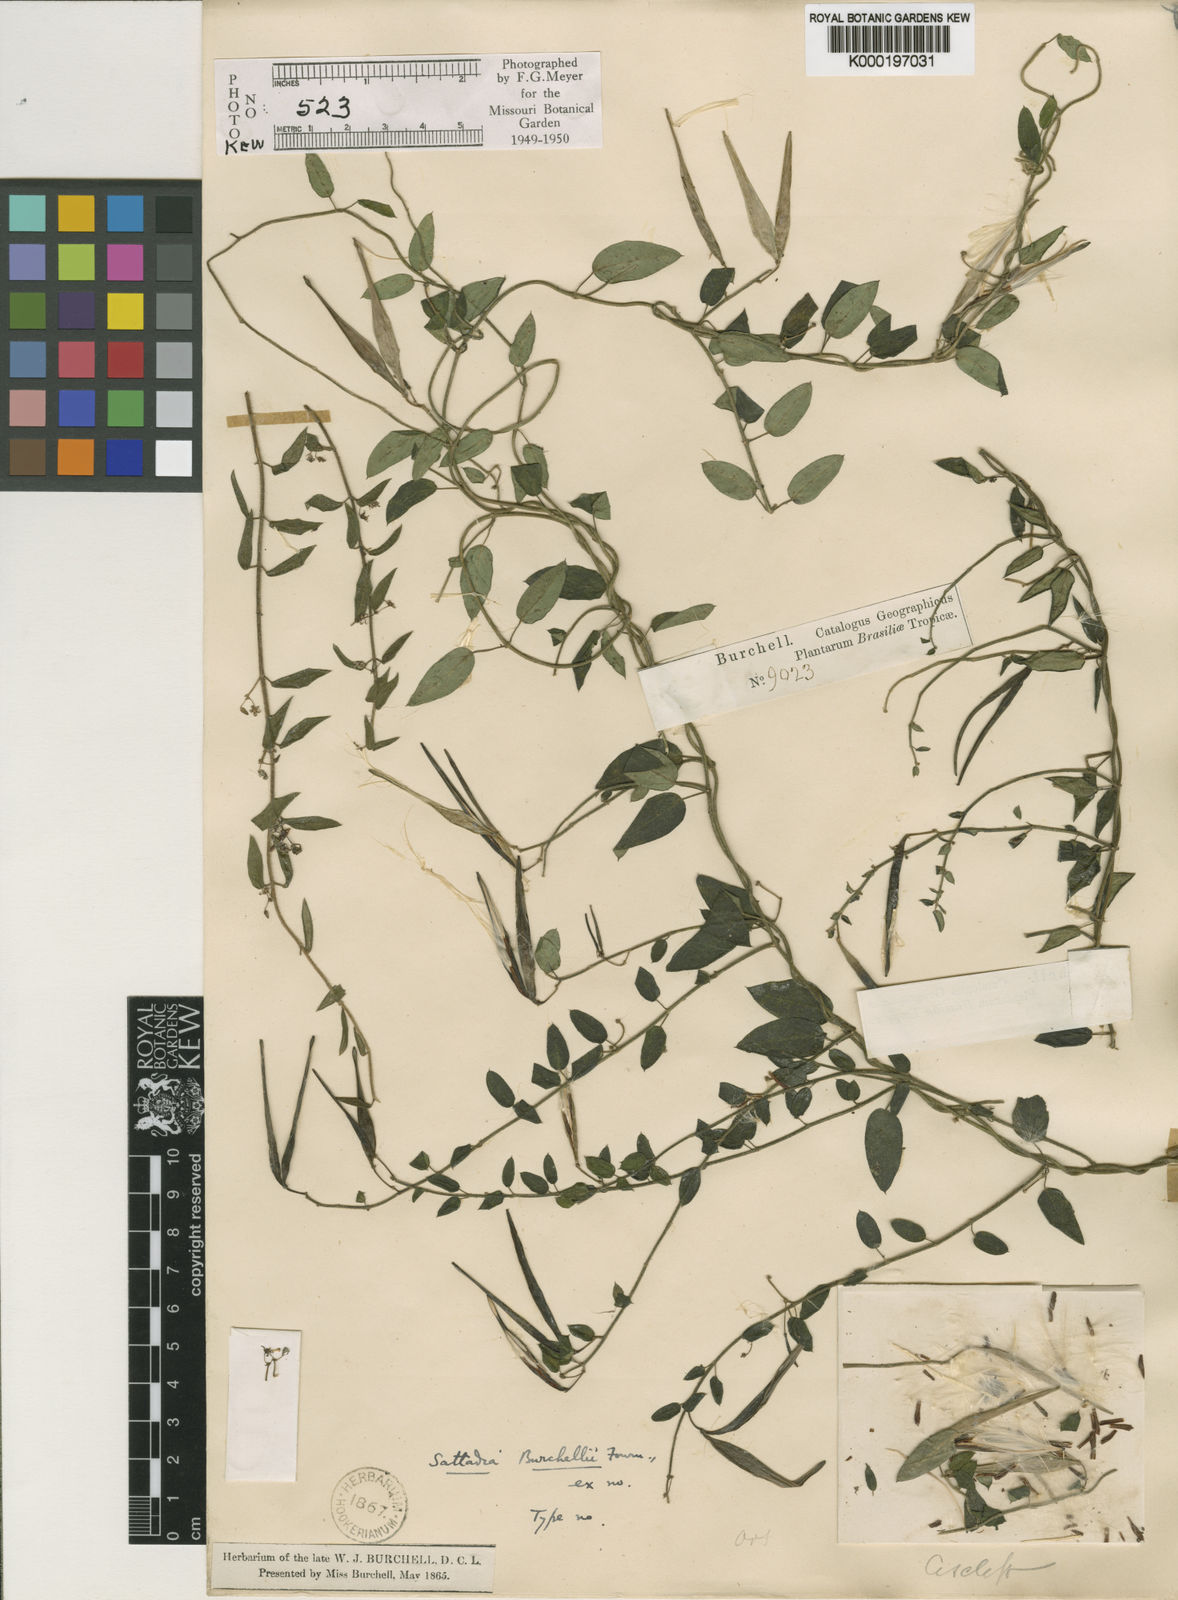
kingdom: Plantae
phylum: Tracheophyta
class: Magnoliopsida
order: Gentianales
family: Apocynaceae
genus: Tassadia
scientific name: Tassadia
